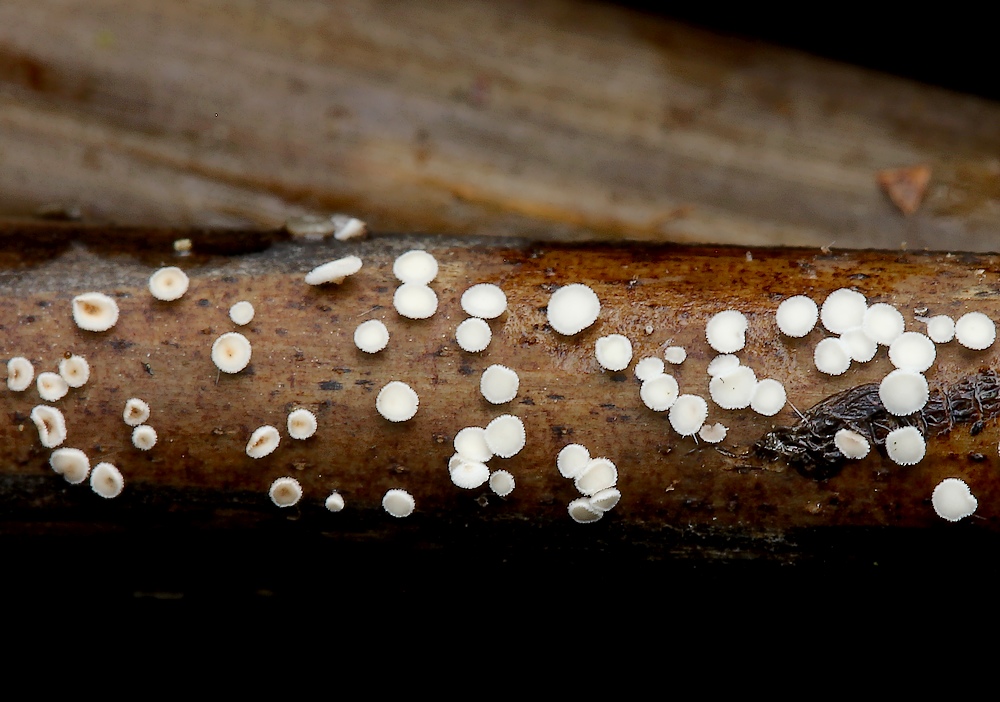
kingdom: Fungi
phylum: Ascomycota
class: Leotiomycetes
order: Helotiales
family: Lachnaceae
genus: Lachnum
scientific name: Lachnum tenuipilosum
